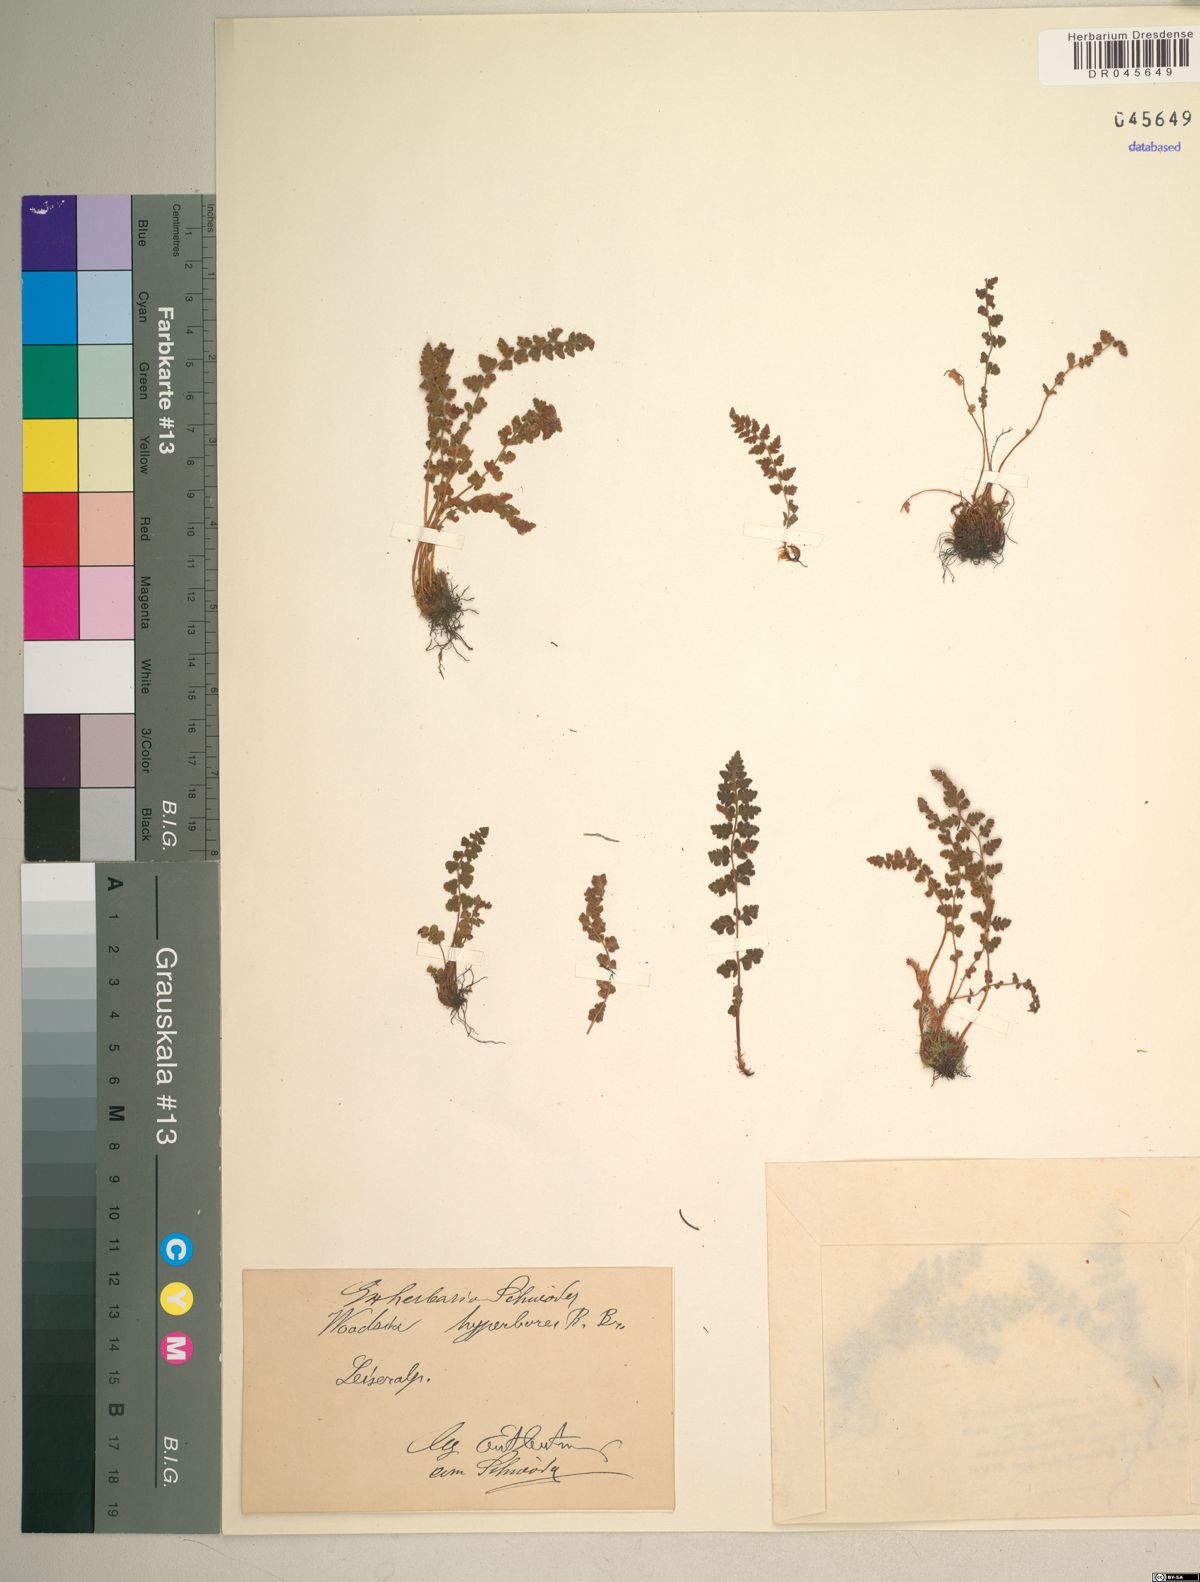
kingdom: Plantae
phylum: Tracheophyta
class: Polypodiopsida
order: Polypodiales
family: Woodsiaceae
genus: Woodsia
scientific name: Woodsia alpina
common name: Alpine woodsia
